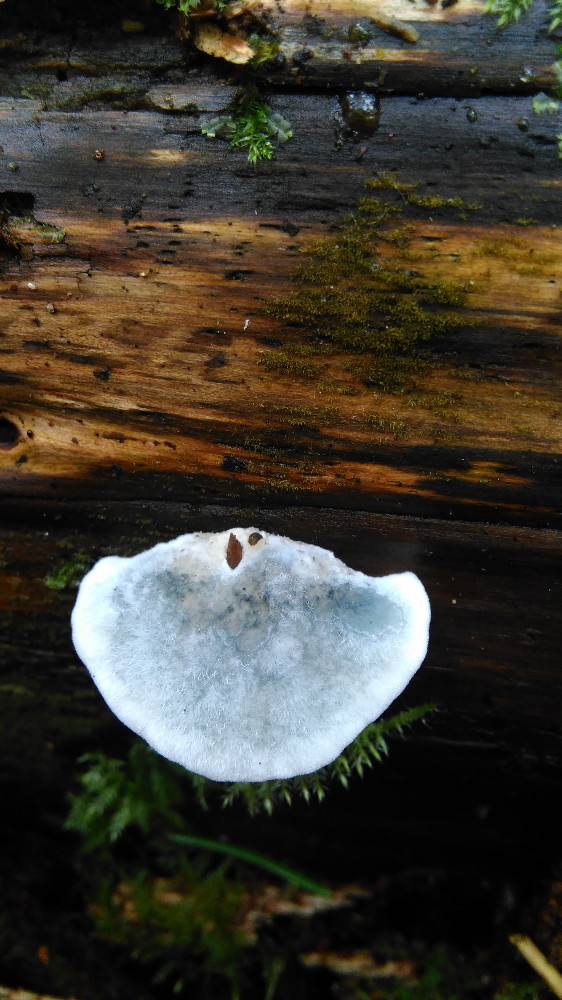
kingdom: Fungi
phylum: Basidiomycota
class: Agaricomycetes
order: Polyporales
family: Polyporaceae
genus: Cyanosporus
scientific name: Cyanosporus caesius
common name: blålig kødporesvamp
